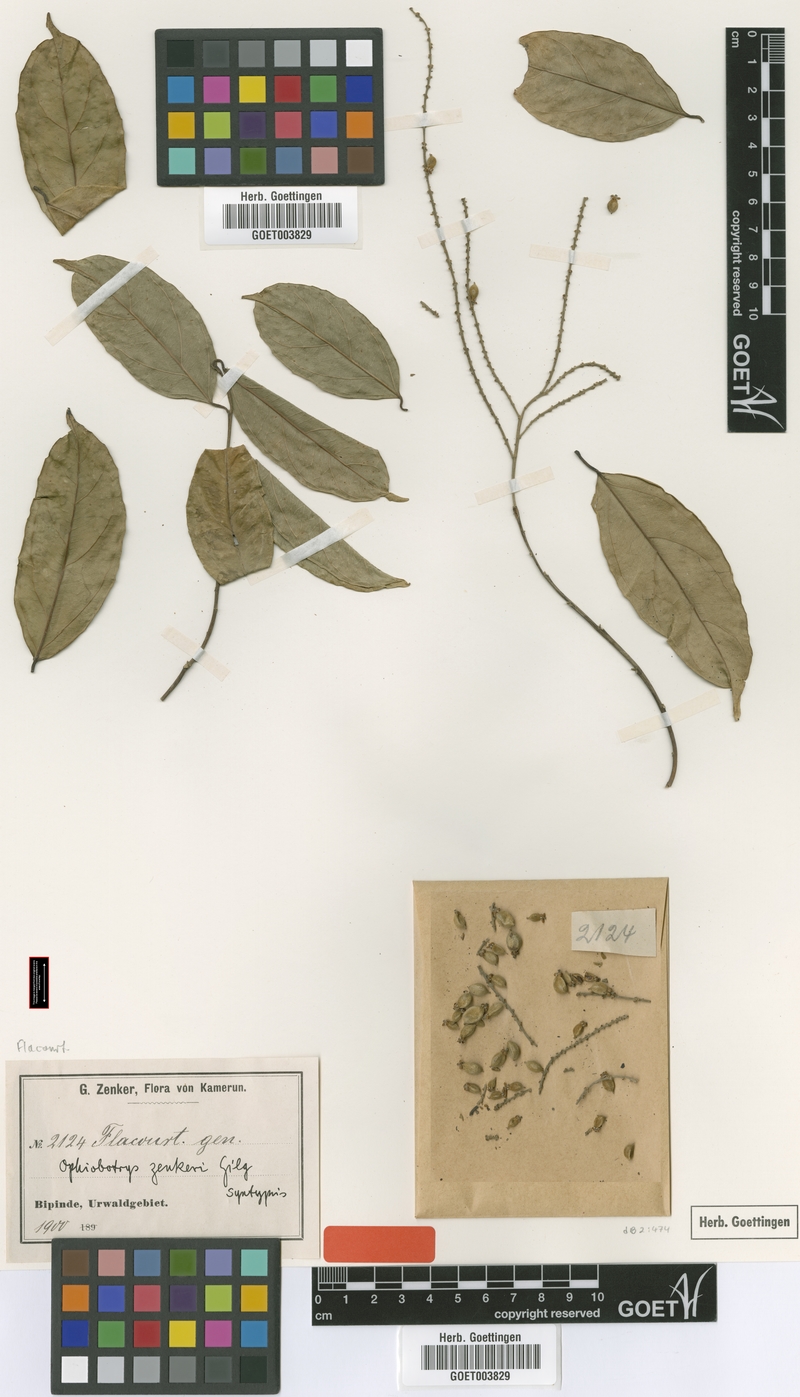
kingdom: Plantae
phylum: Tracheophyta
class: Magnoliopsida
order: Malpighiales
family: Salicaceae
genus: Ophiobotrys
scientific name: Ophiobotrys zenkeri
